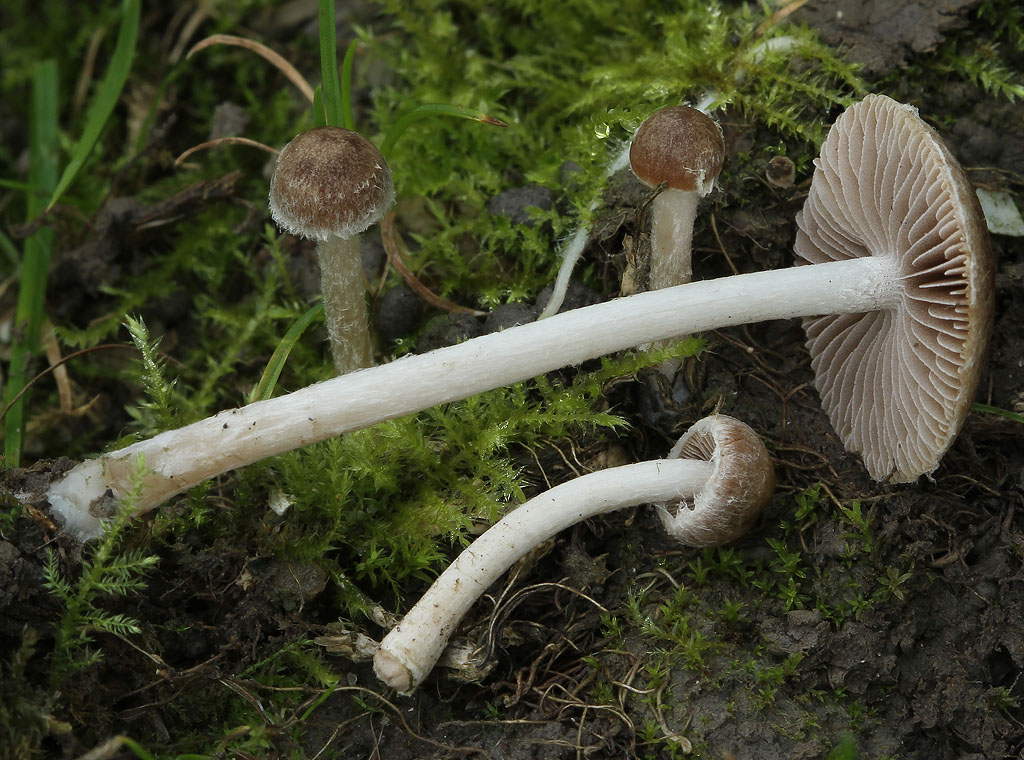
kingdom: Fungi
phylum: Basidiomycota
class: Agaricomycetes
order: Agaricales
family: Psathyrellaceae
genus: Psathyrella
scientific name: Psathyrella obtusata
